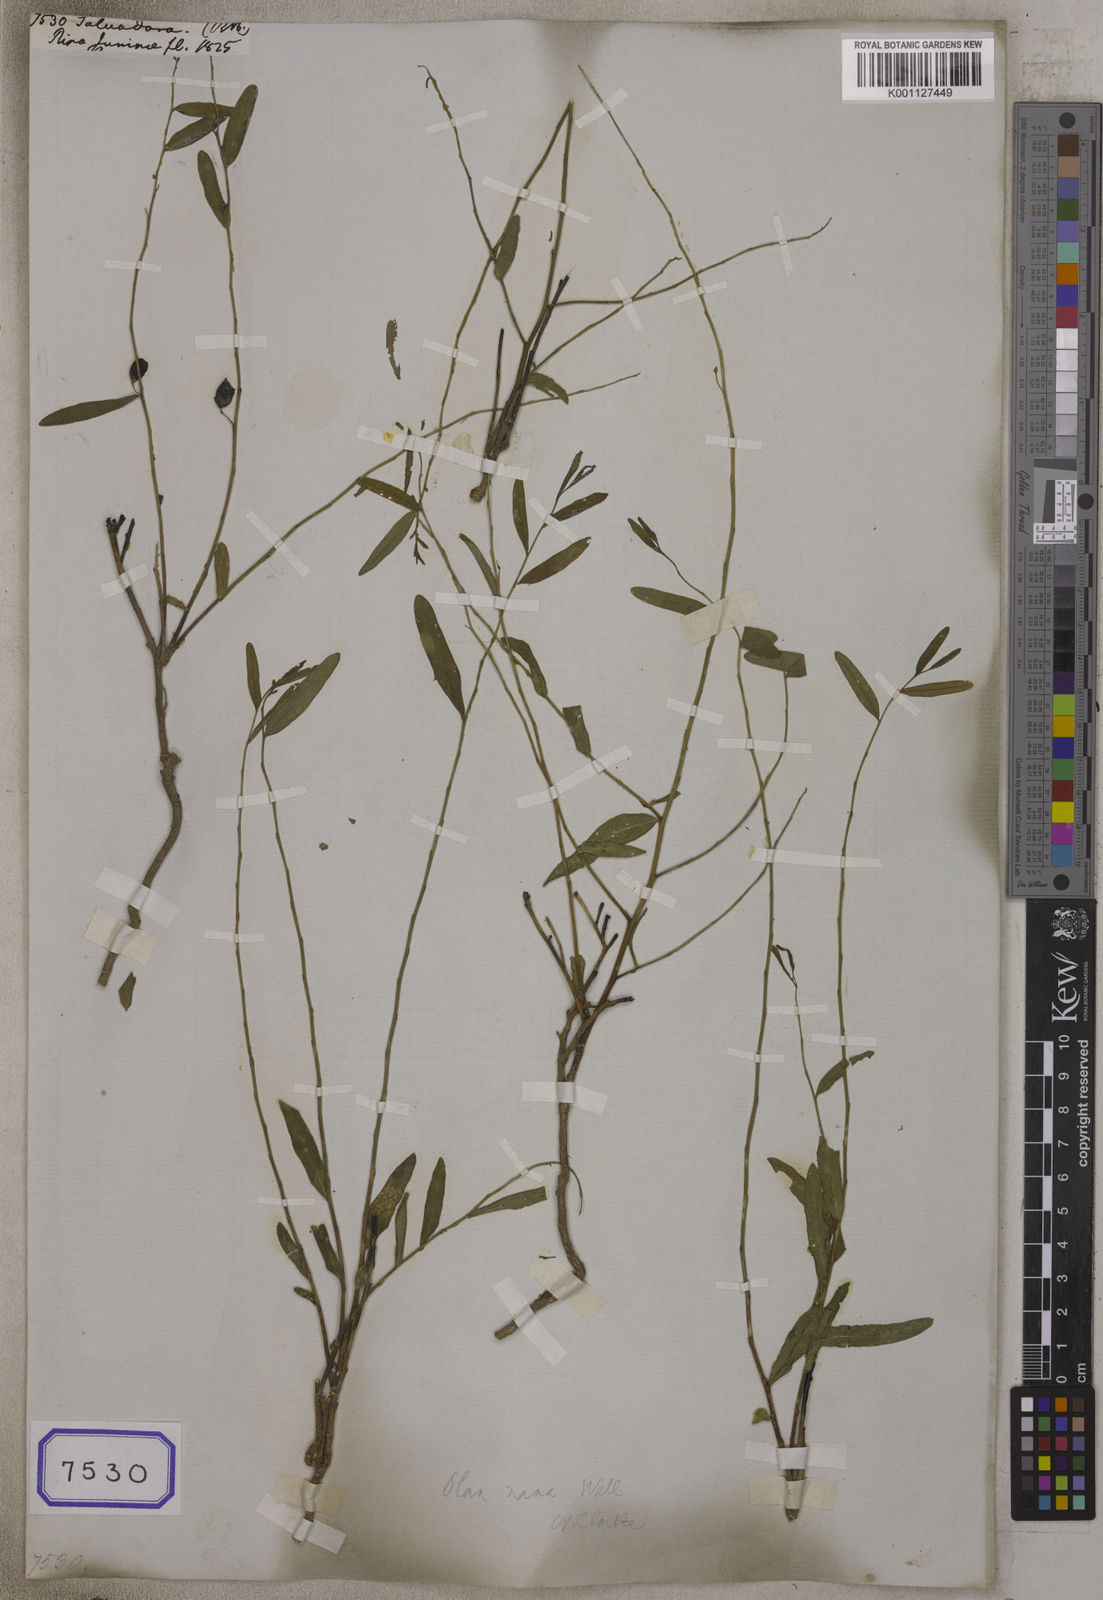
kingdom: Plantae
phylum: Tracheophyta
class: Magnoliopsida
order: Brassicales
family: Salvadoraceae
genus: Salvadora
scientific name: Salvadora
